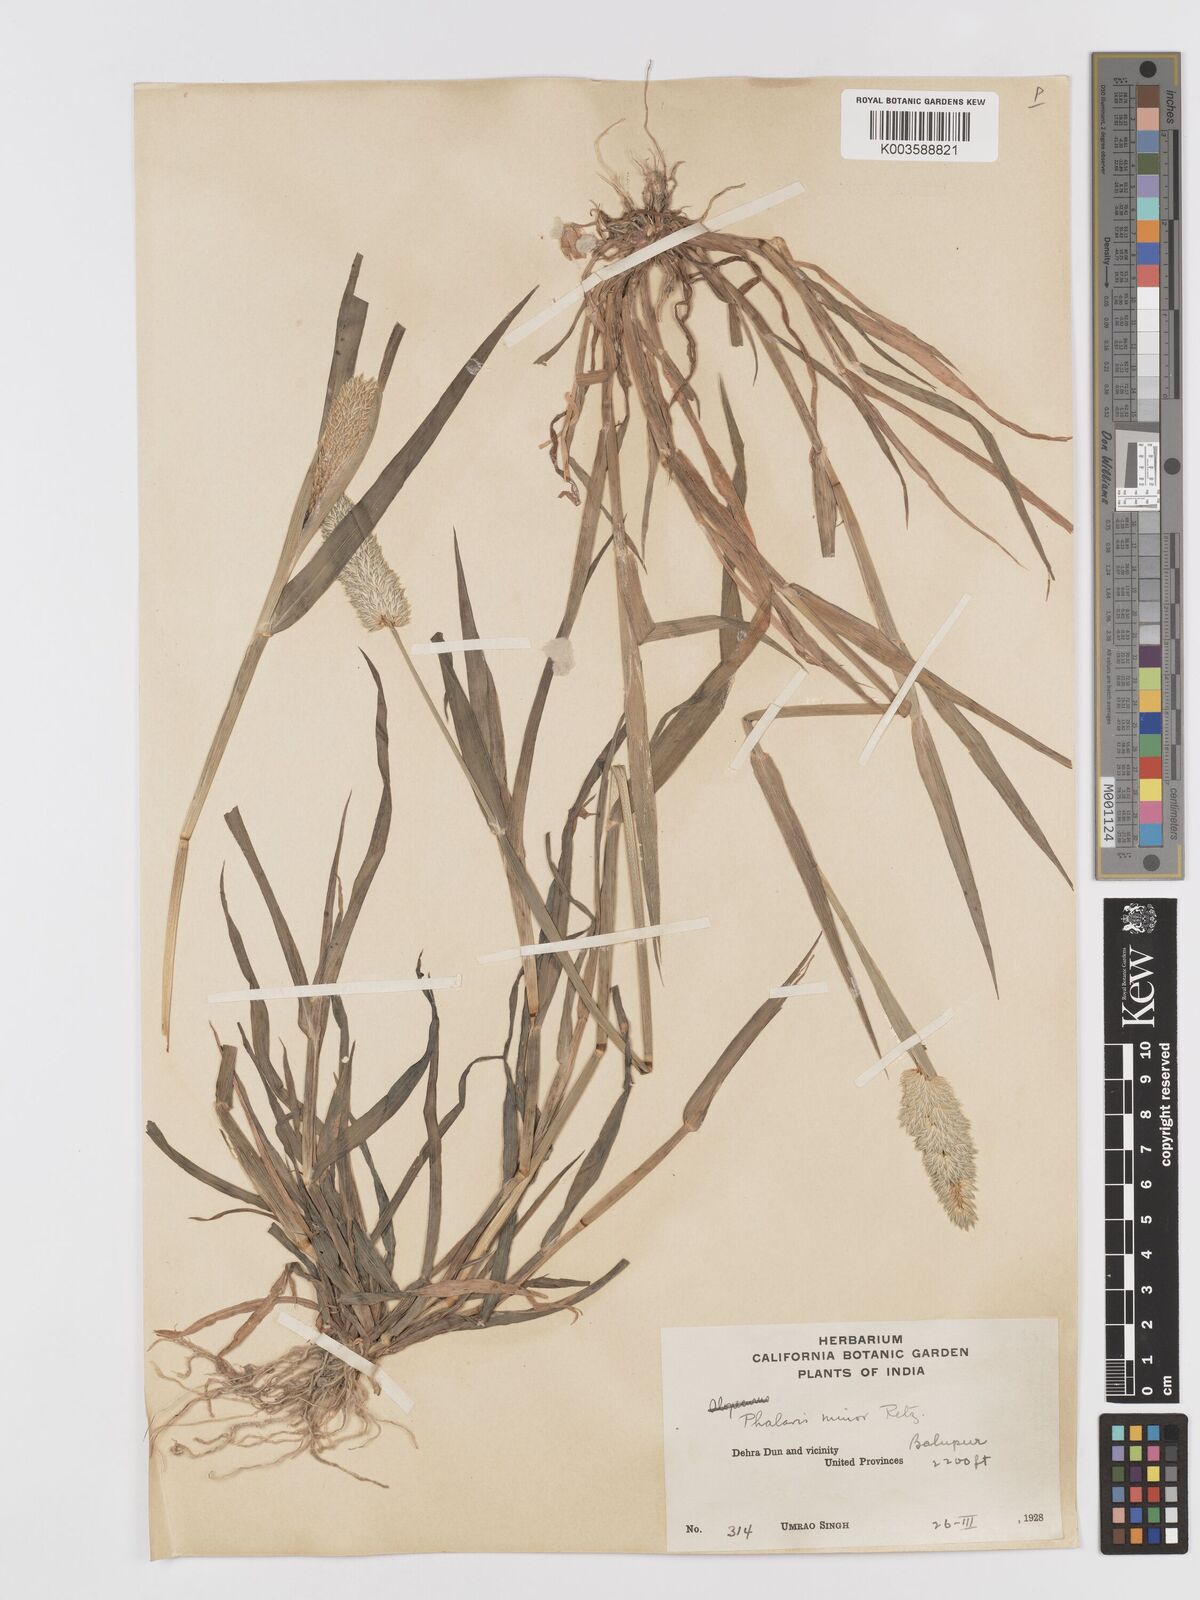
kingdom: Plantae
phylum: Tracheophyta
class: Liliopsida
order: Poales
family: Poaceae
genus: Phalaris
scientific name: Phalaris minor
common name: Littleseed canarygrass
